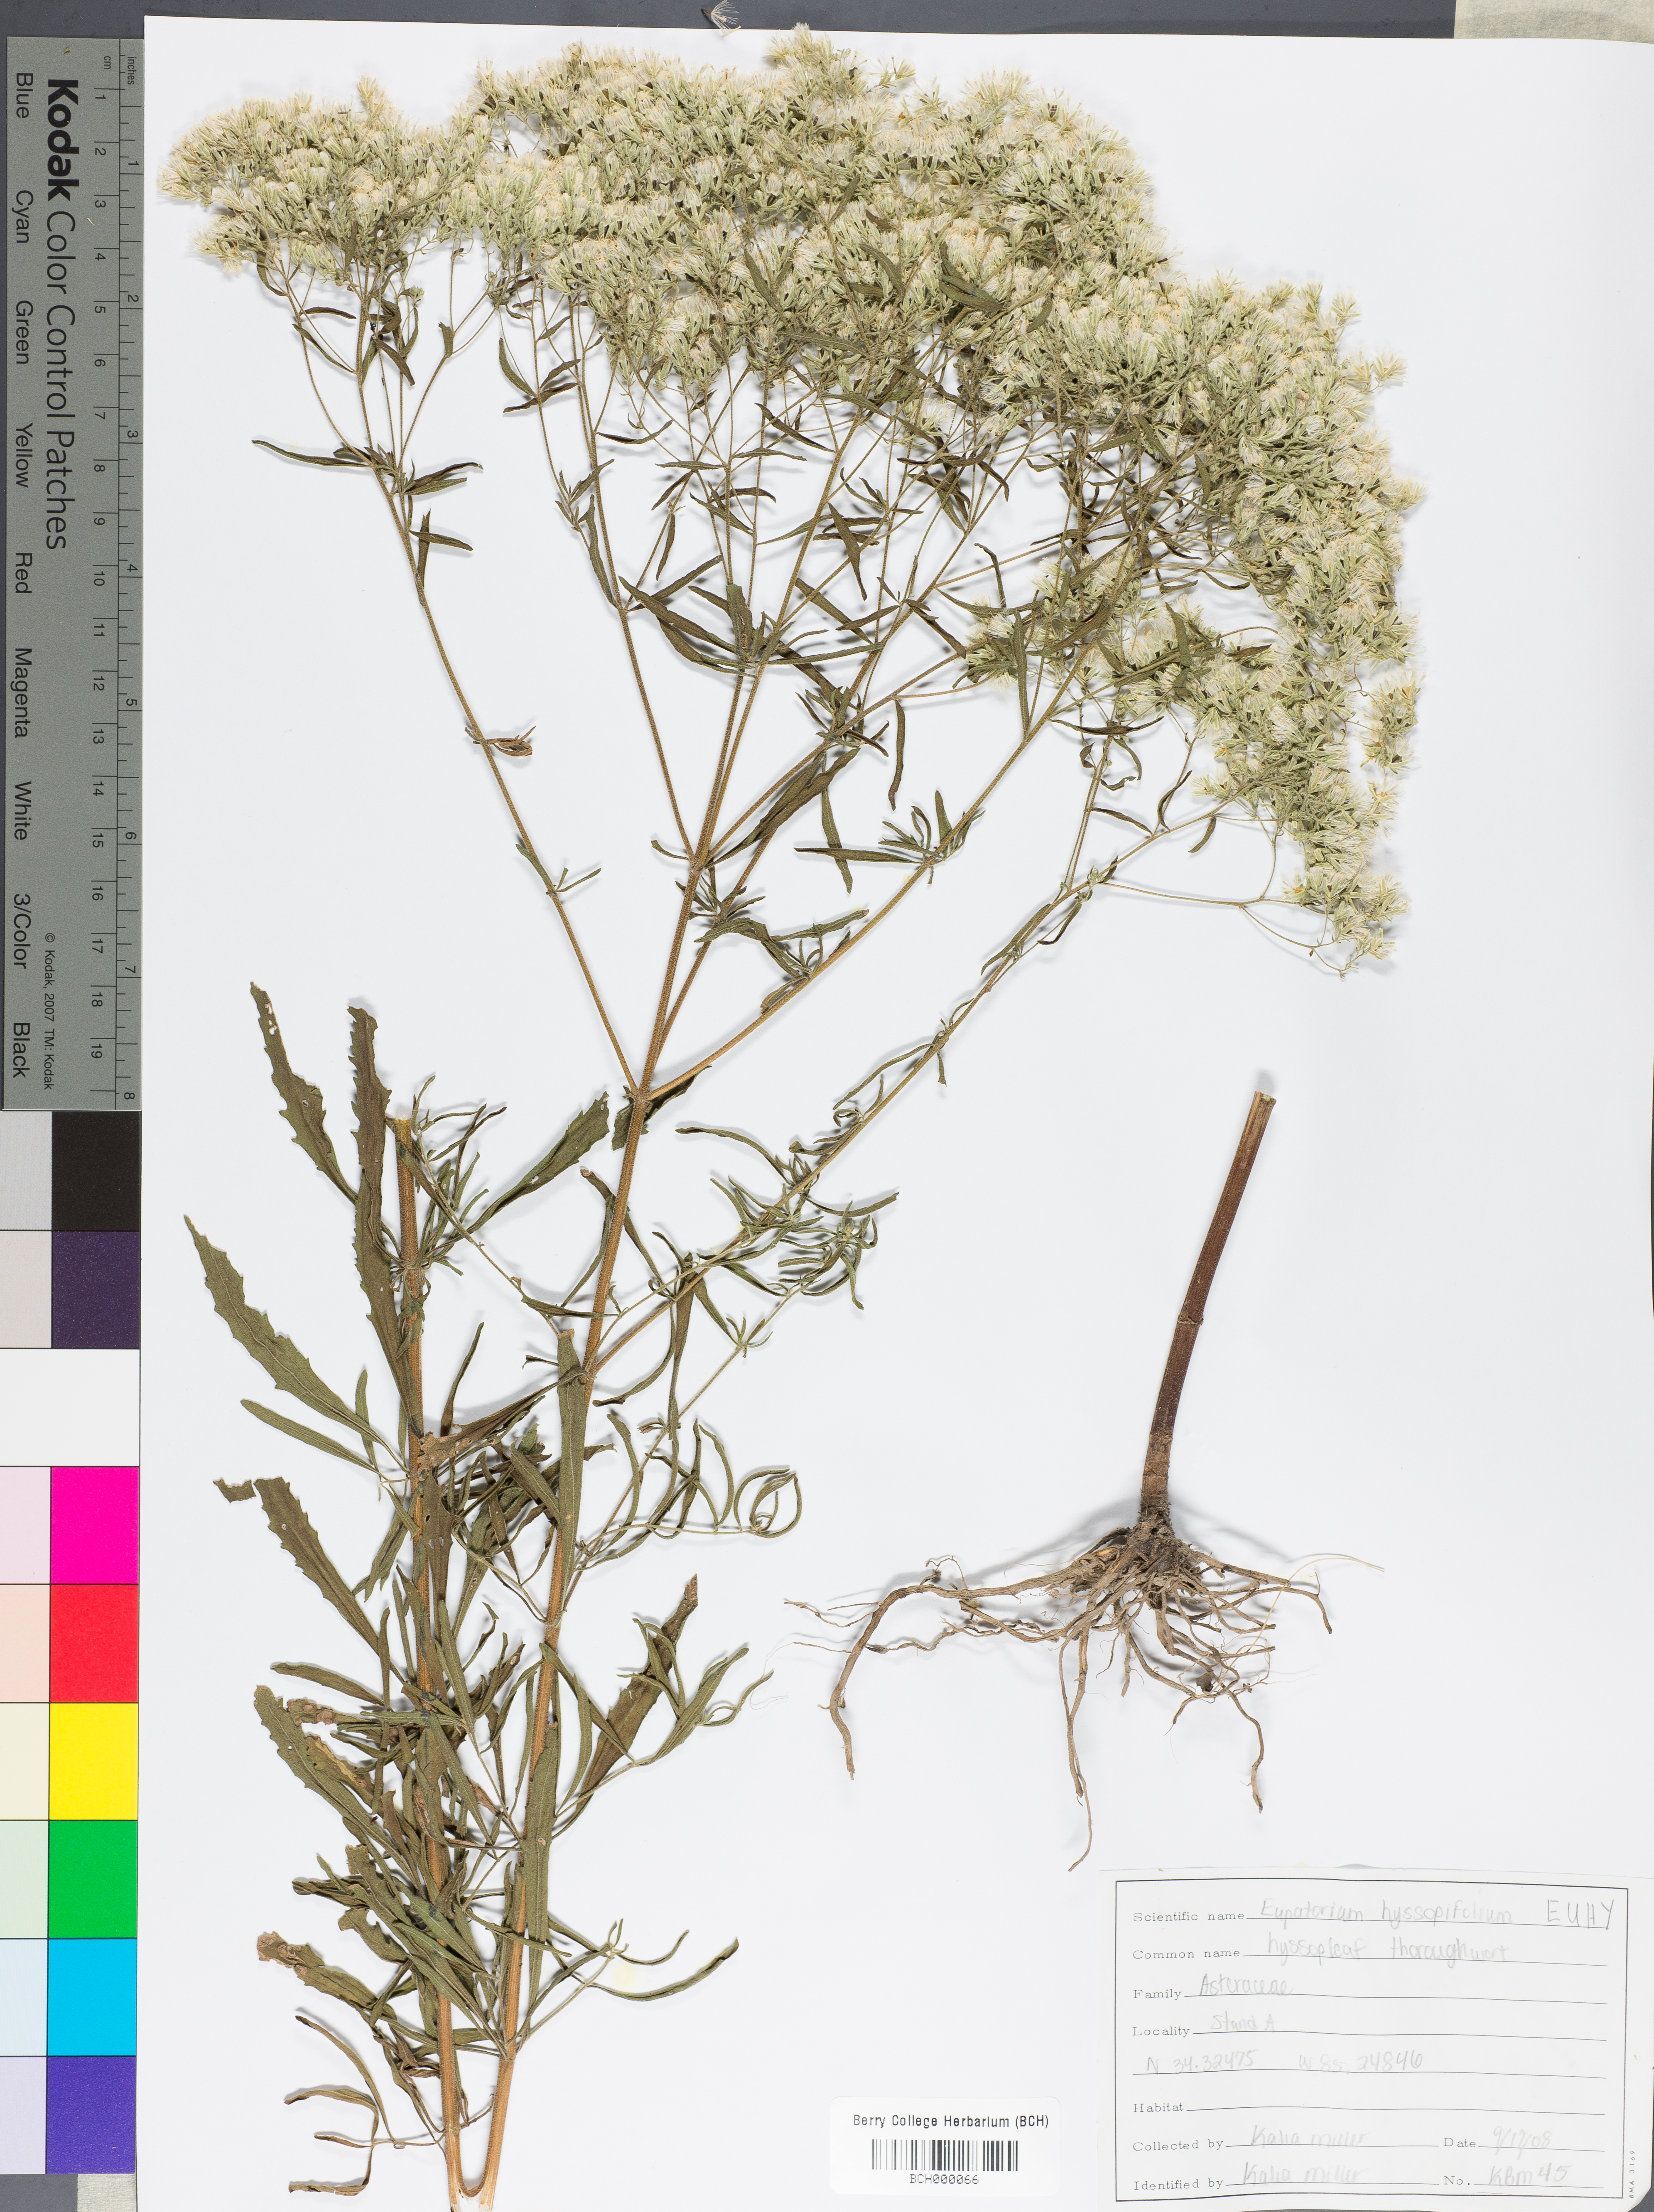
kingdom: Plantae
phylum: Tracheophyta
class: Magnoliopsida
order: Asterales
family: Asteraceae
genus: Eupatorium
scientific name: Eupatorium hyssopifolium
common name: Hyssop-leaf thoroughwort
